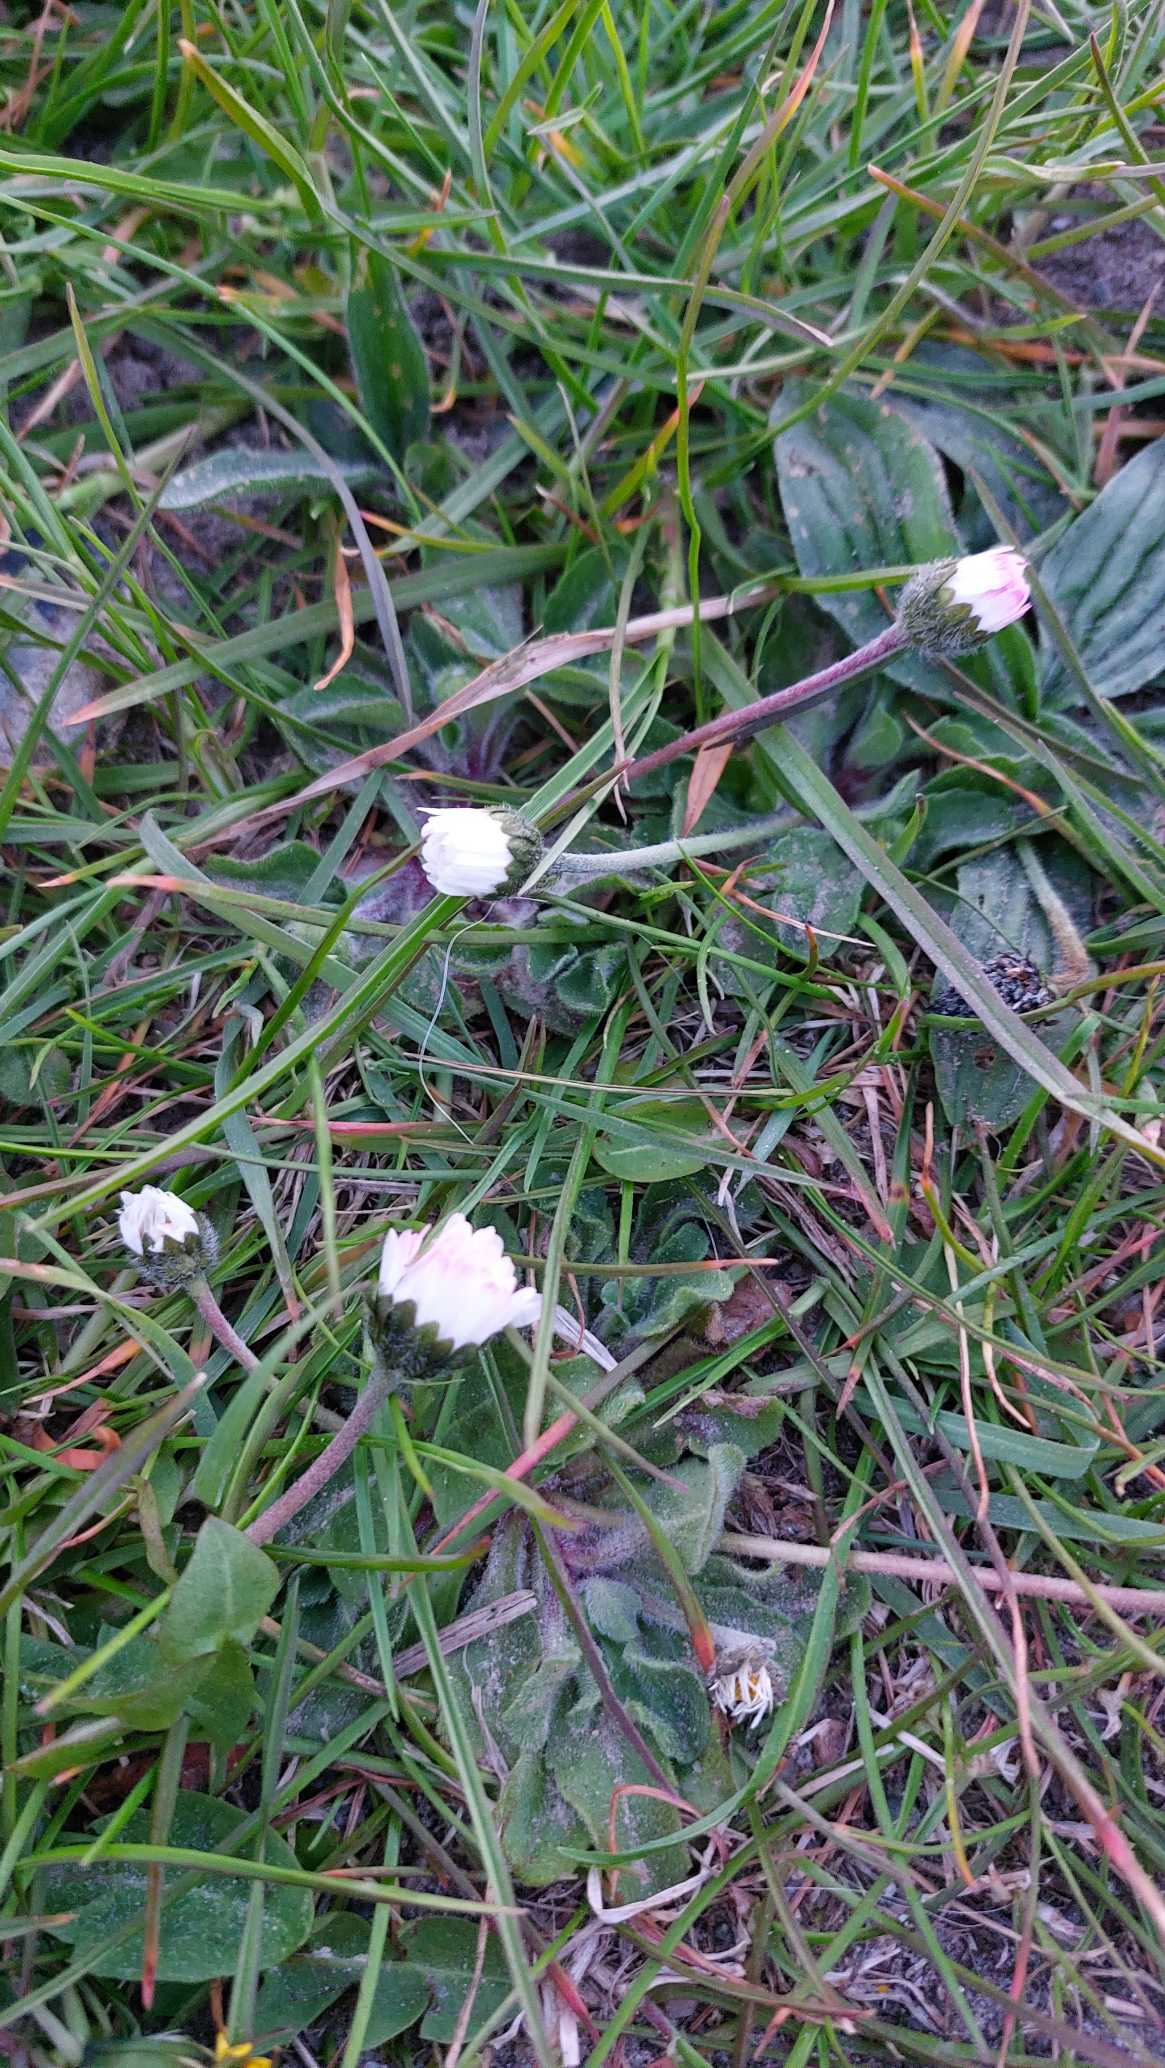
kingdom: Plantae
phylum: Tracheophyta
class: Magnoliopsida
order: Asterales
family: Asteraceae
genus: Bellis
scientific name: Bellis perennis
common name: Tusindfryd
